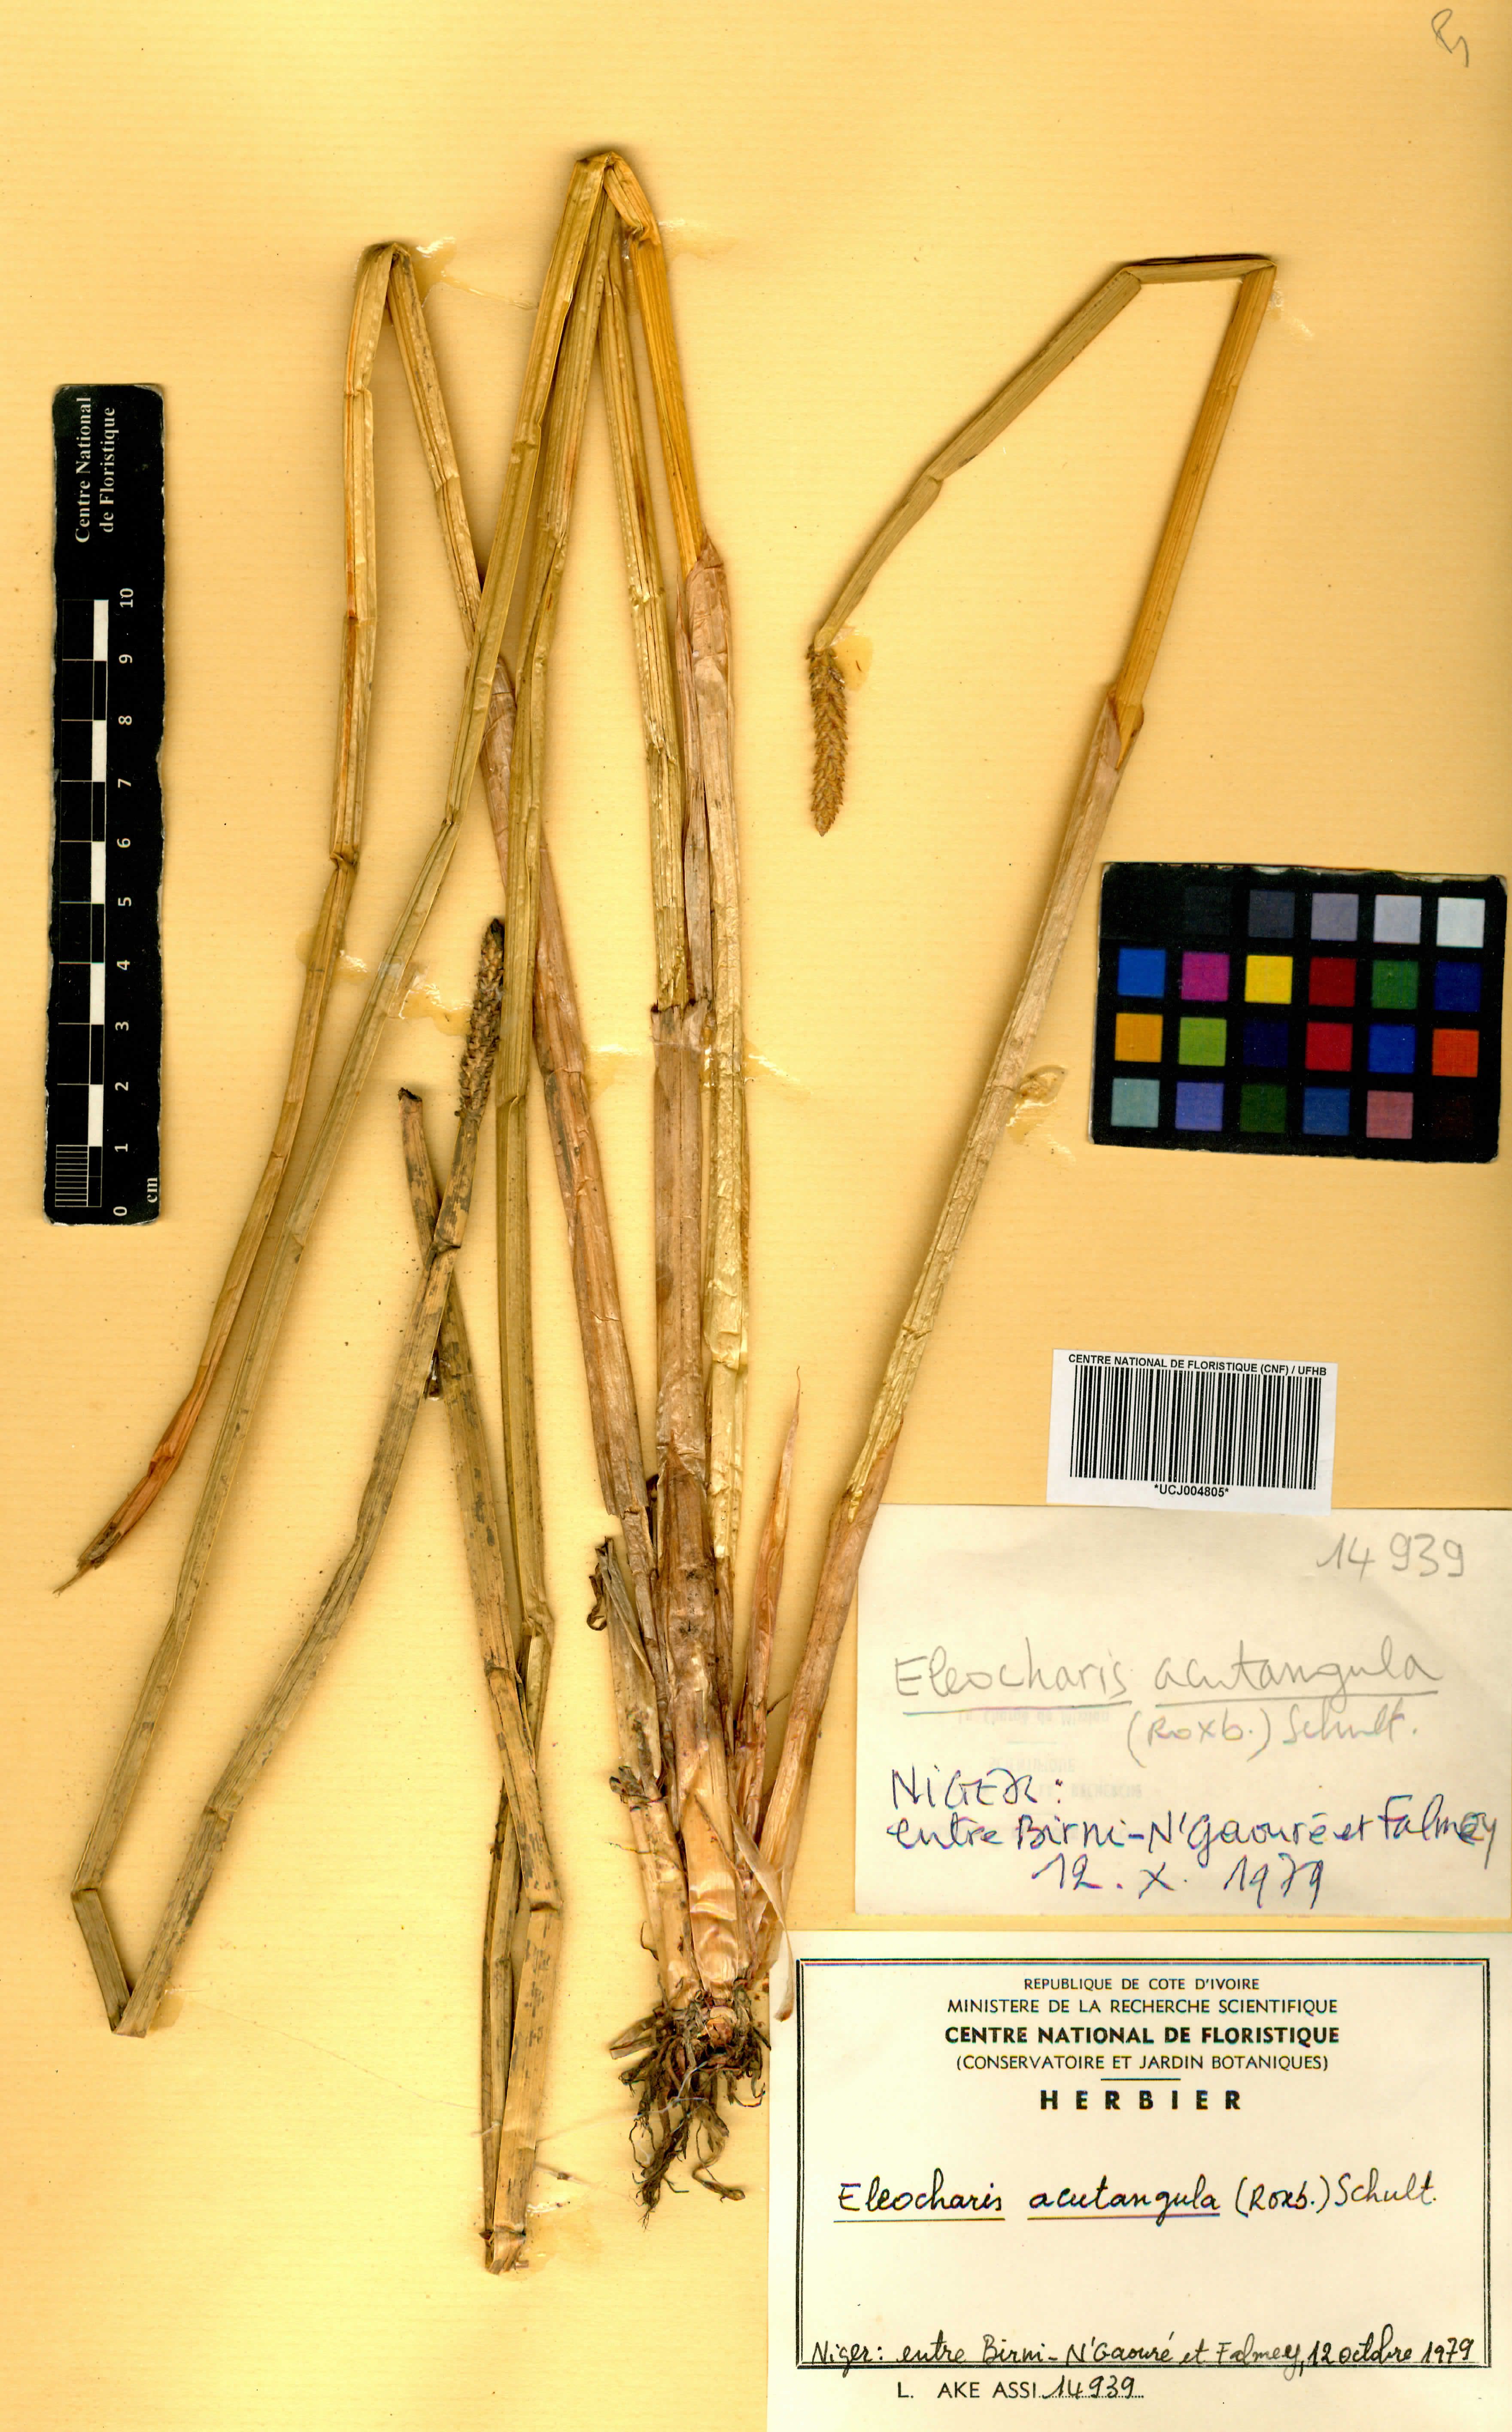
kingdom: Plantae
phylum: Tracheophyta
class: Liliopsida
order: Poales
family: Cyperaceae
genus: Eleocharis
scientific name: Eleocharis acutangula
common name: Acute spikerush
